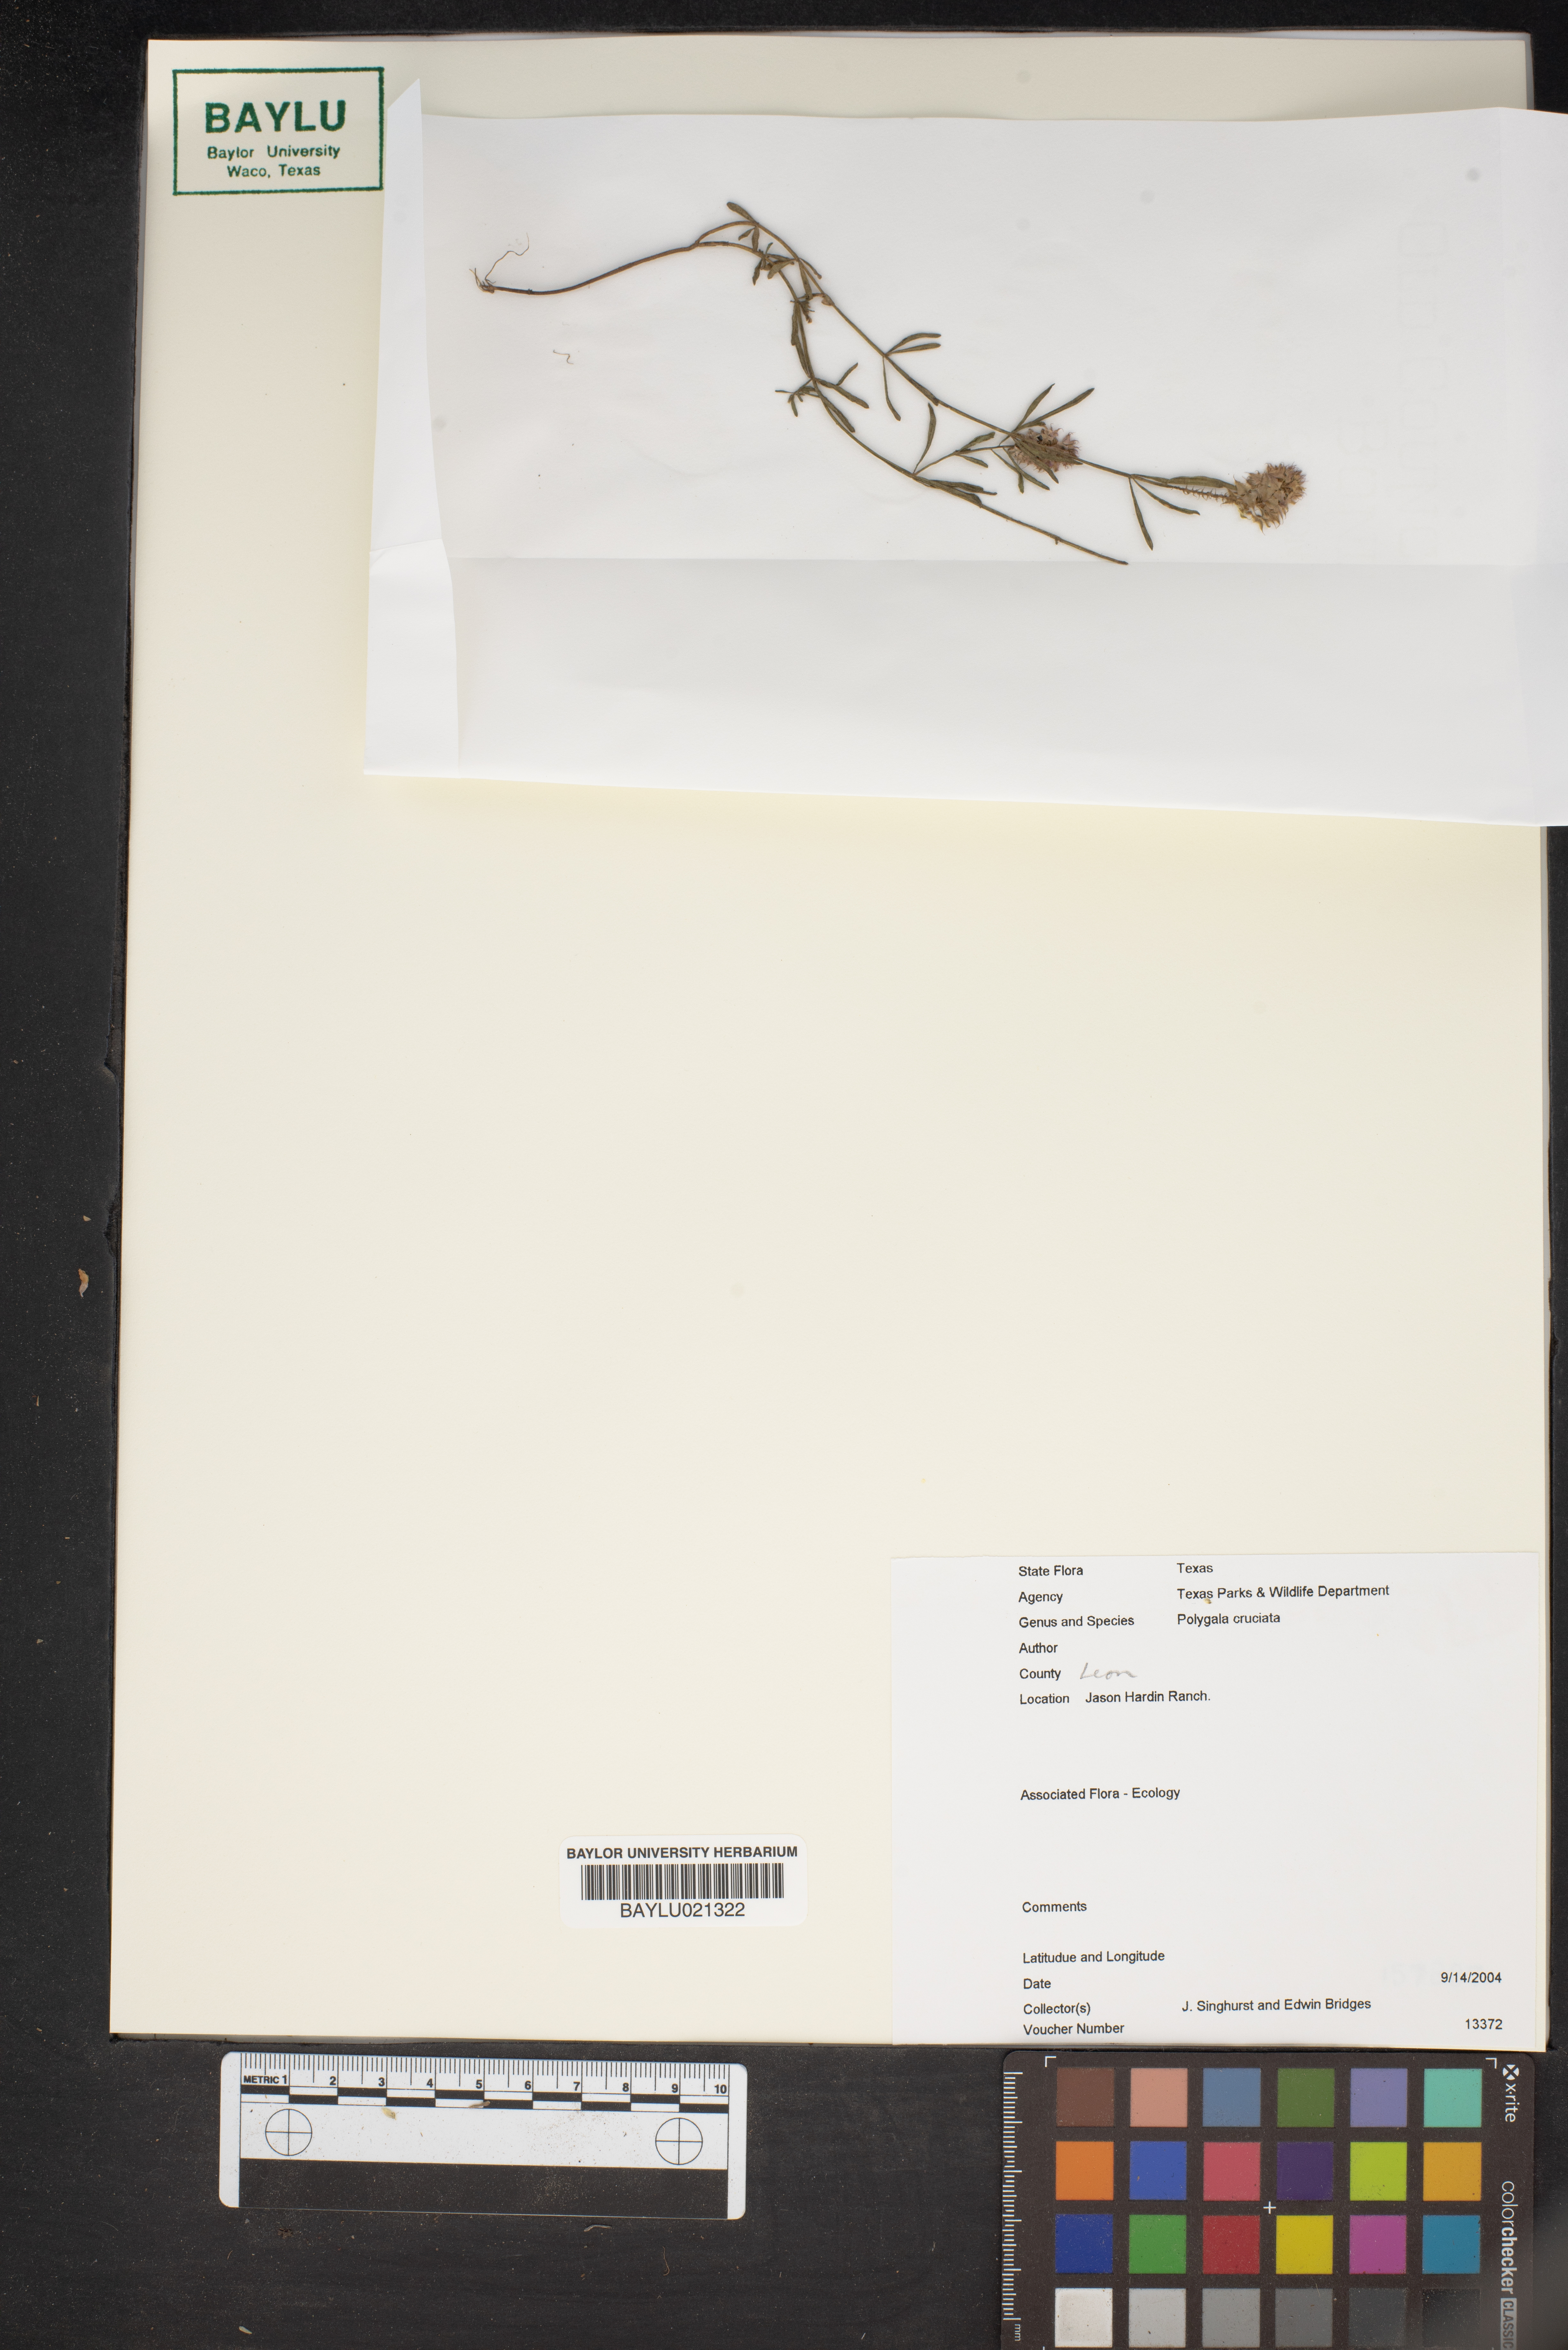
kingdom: Plantae
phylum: Tracheophyta
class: Magnoliopsida
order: Fabales
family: Polygalaceae
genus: Polygala
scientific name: Polygala cruciata
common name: Drumheads
